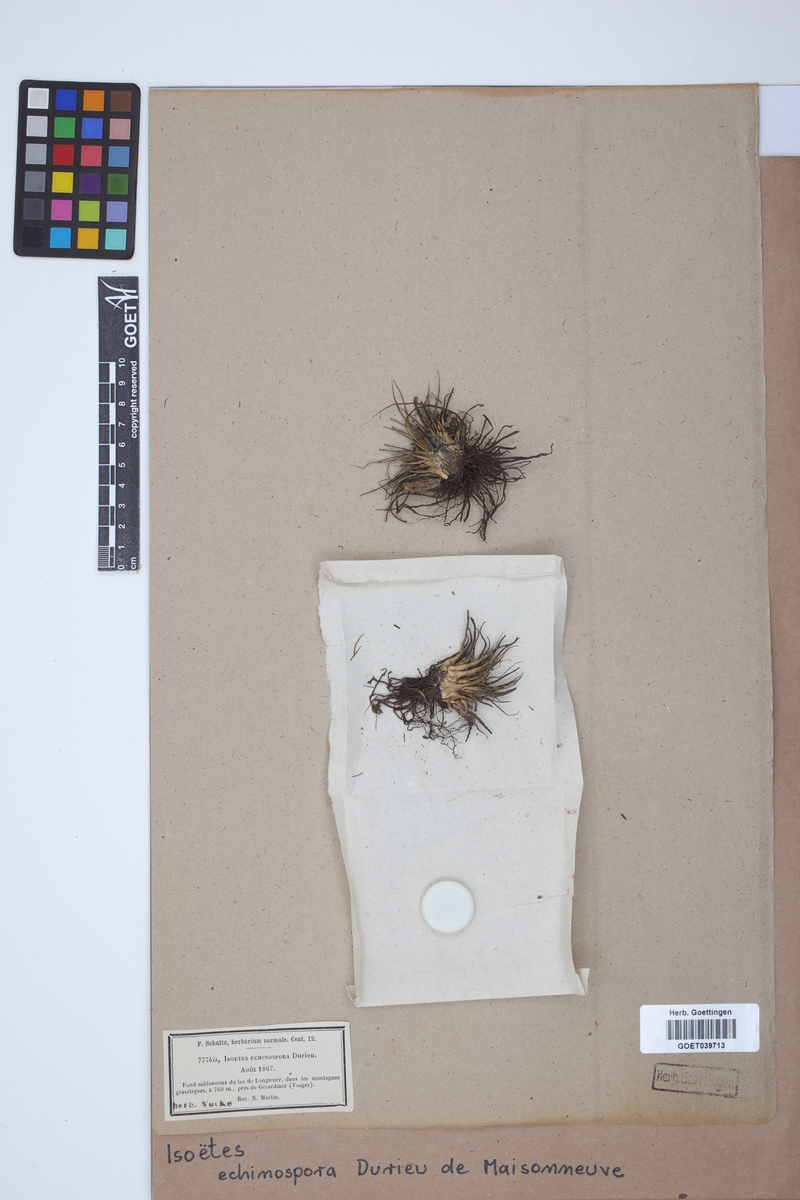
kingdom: Plantae
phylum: Tracheophyta
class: Lycopodiopsida
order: Isoetales
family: Isoetaceae
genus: Isoetes
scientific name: Isoetes echinospora
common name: Spring quillwort
